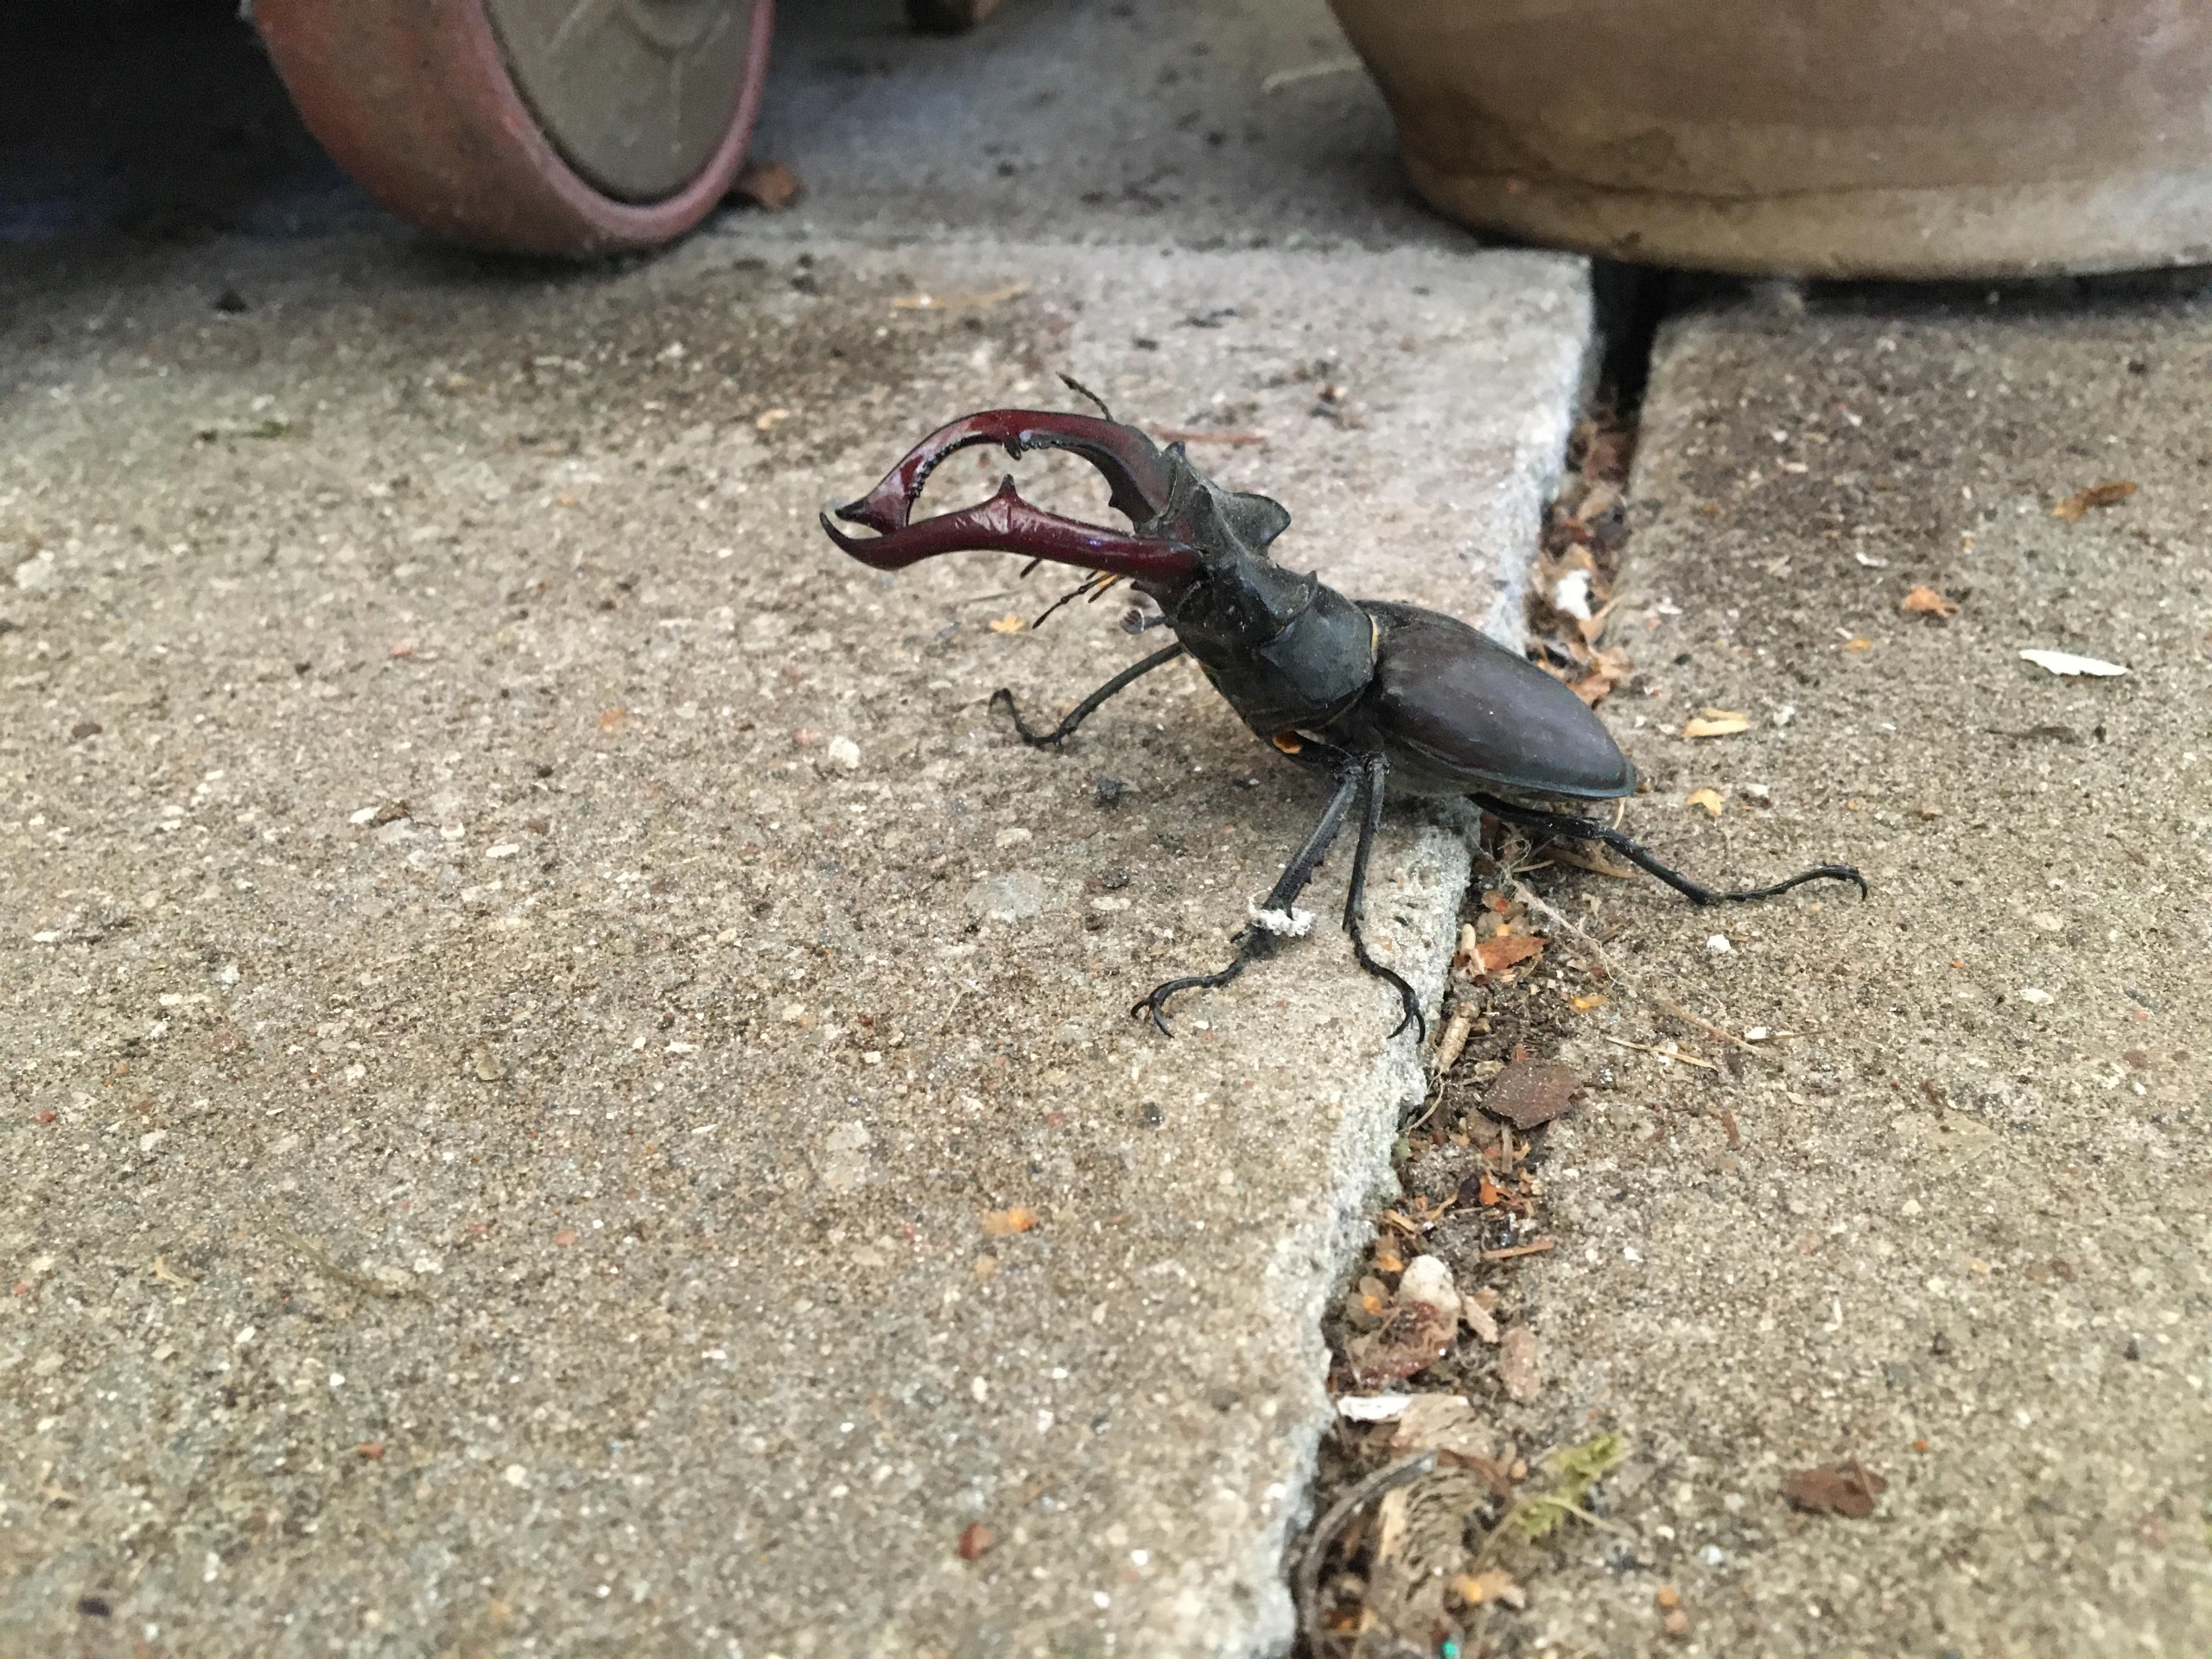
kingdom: Animalia
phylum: Arthropoda
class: Insecta
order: Coleoptera
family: Lucanidae
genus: Lucanus
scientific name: Lucanus cervus
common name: Eghjort
